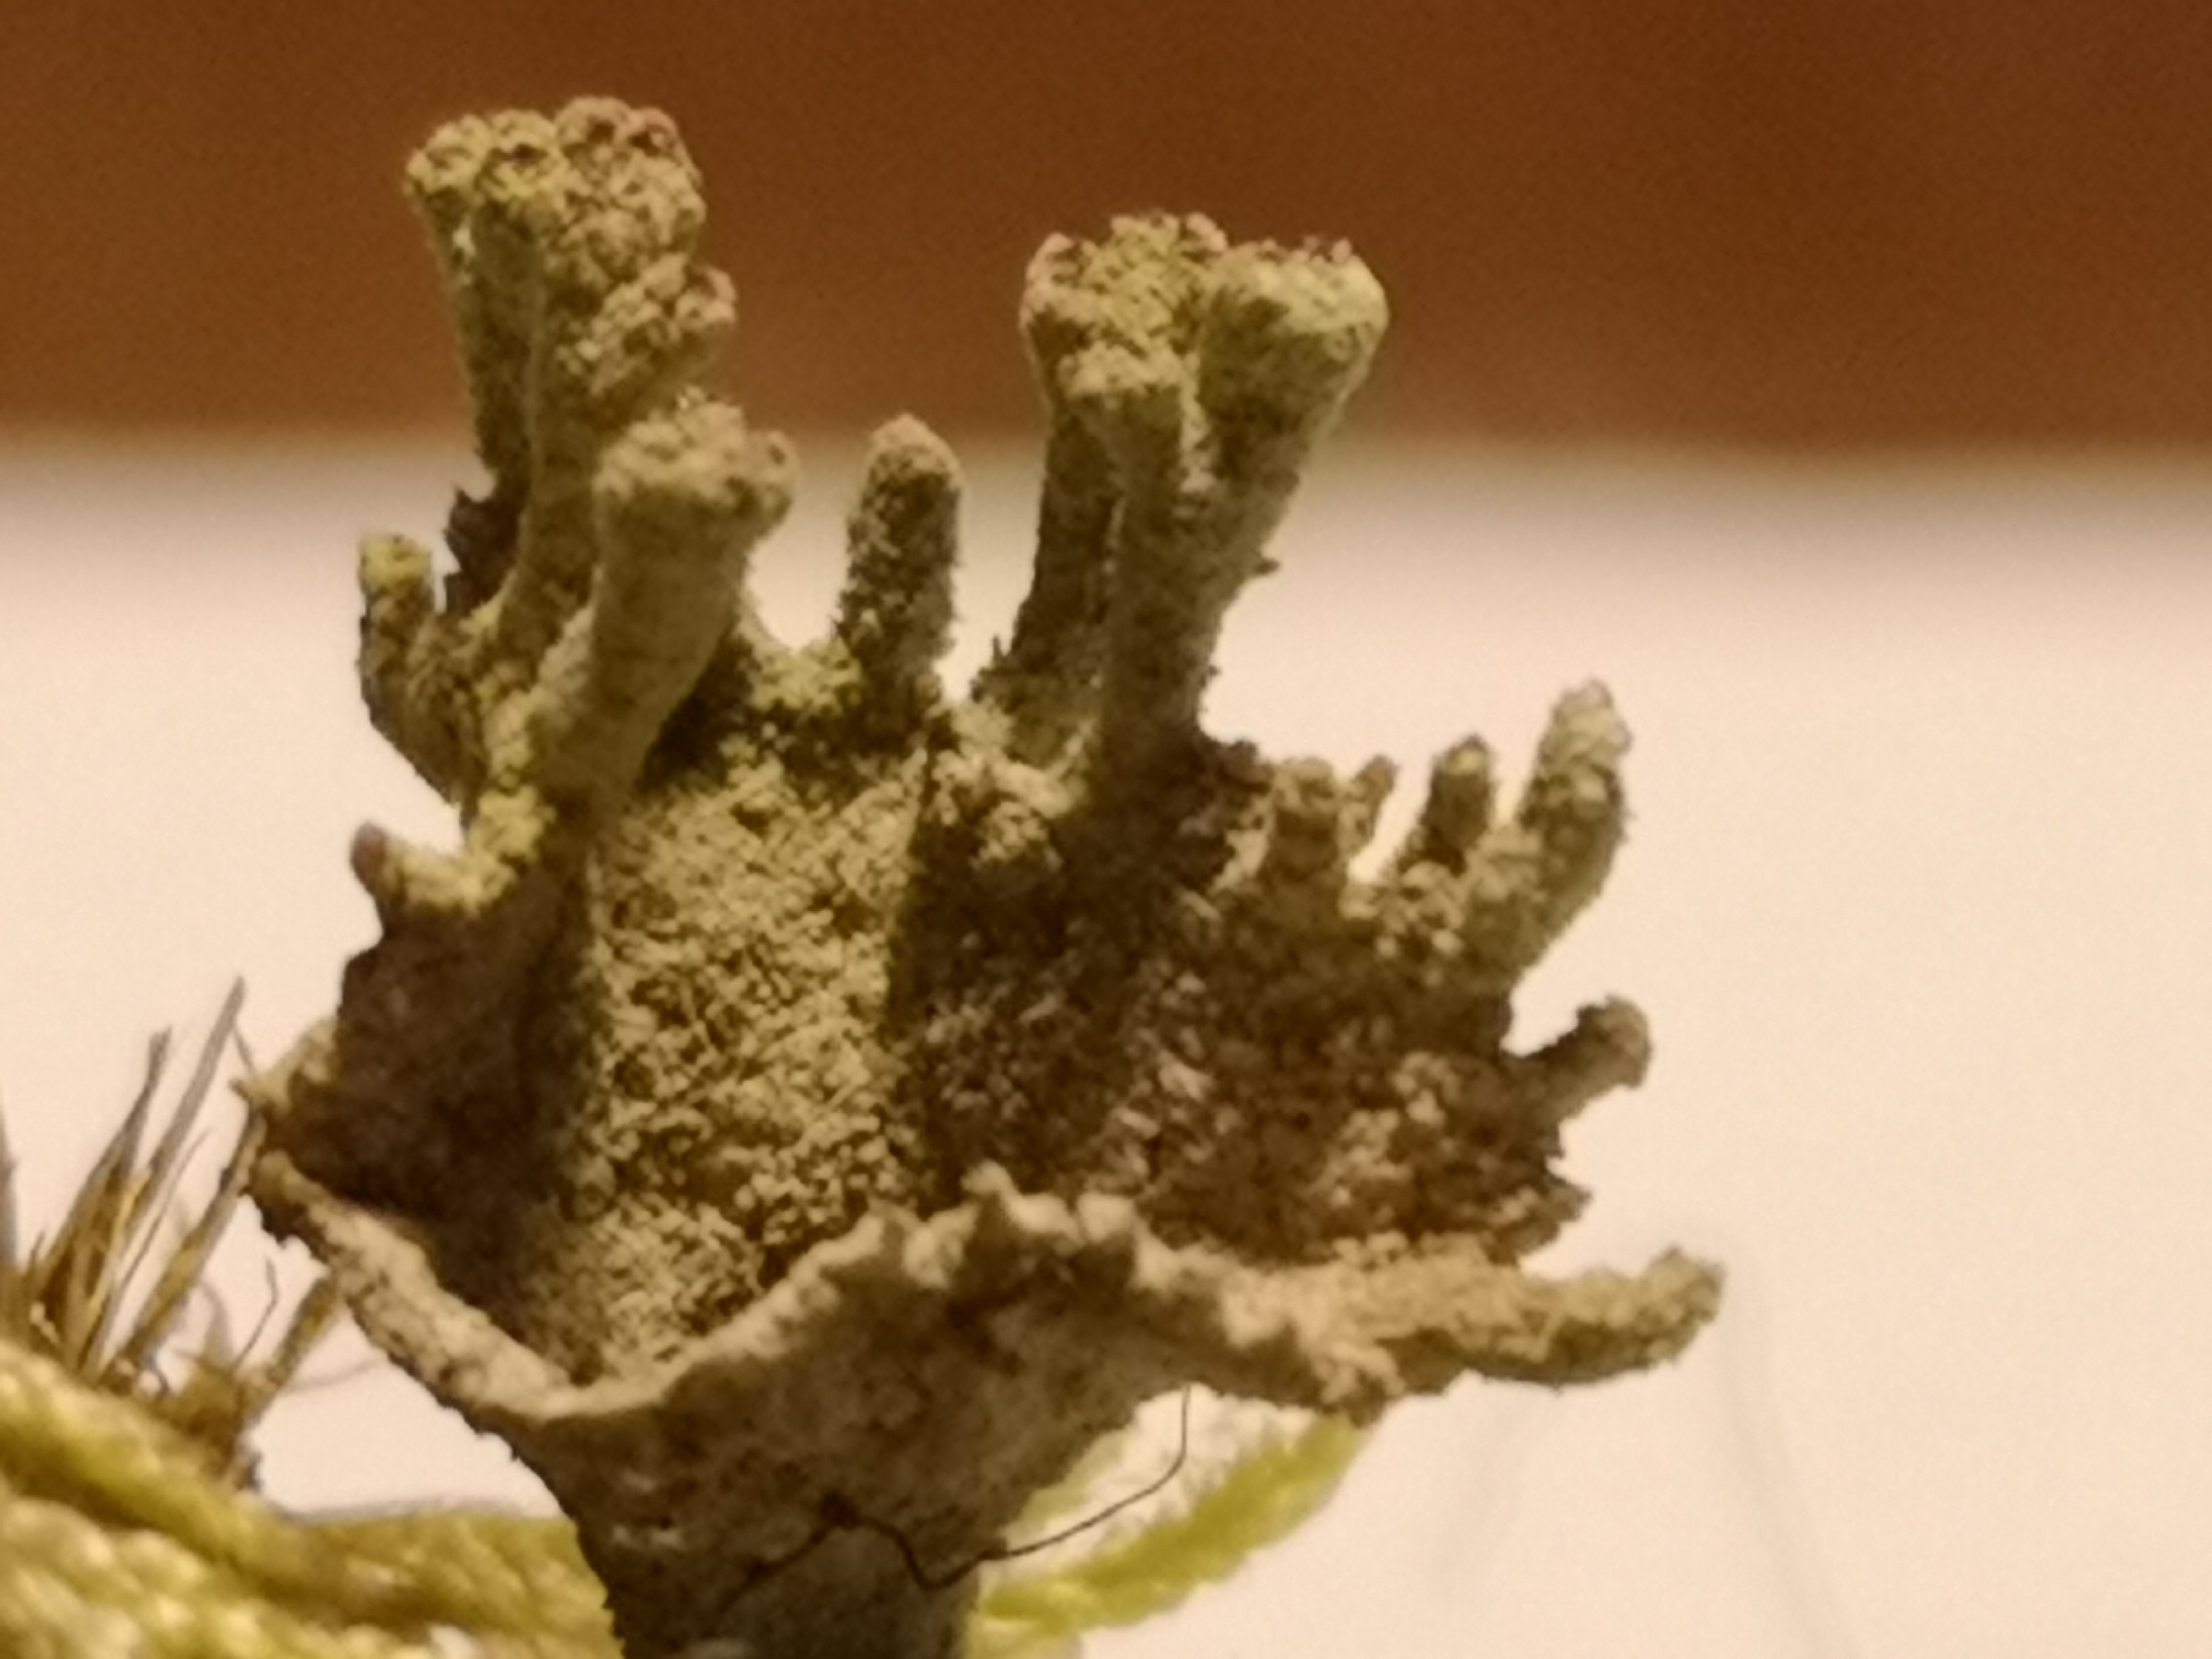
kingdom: Fungi
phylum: Ascomycota
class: Lecanoromycetes
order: Lecanorales
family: Cladoniaceae
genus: Cladonia
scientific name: Cladonia
